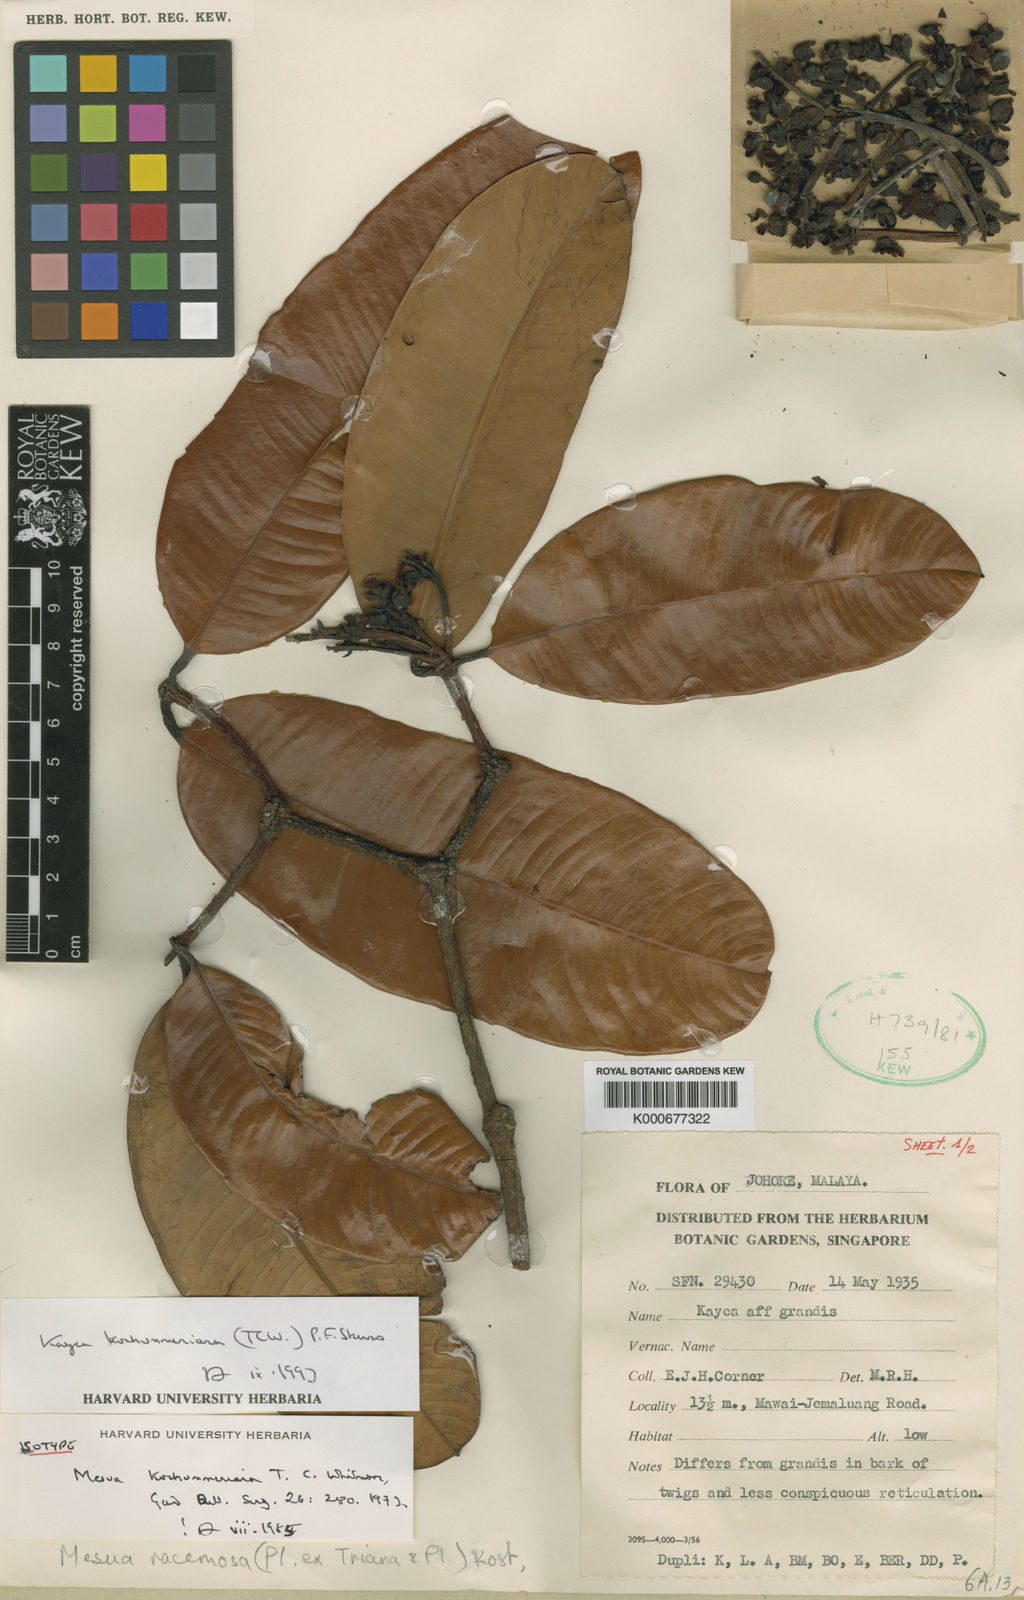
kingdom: Plantae
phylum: Tracheophyta
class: Magnoliopsida
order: Malpighiales
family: Calophyllaceae
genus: Kayea
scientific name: Kayea
